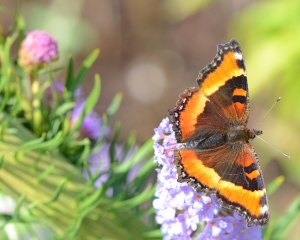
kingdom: Animalia
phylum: Arthropoda
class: Insecta
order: Lepidoptera
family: Nymphalidae
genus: Aglais
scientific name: Aglais milberti
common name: Milbert's Tortoiseshell
